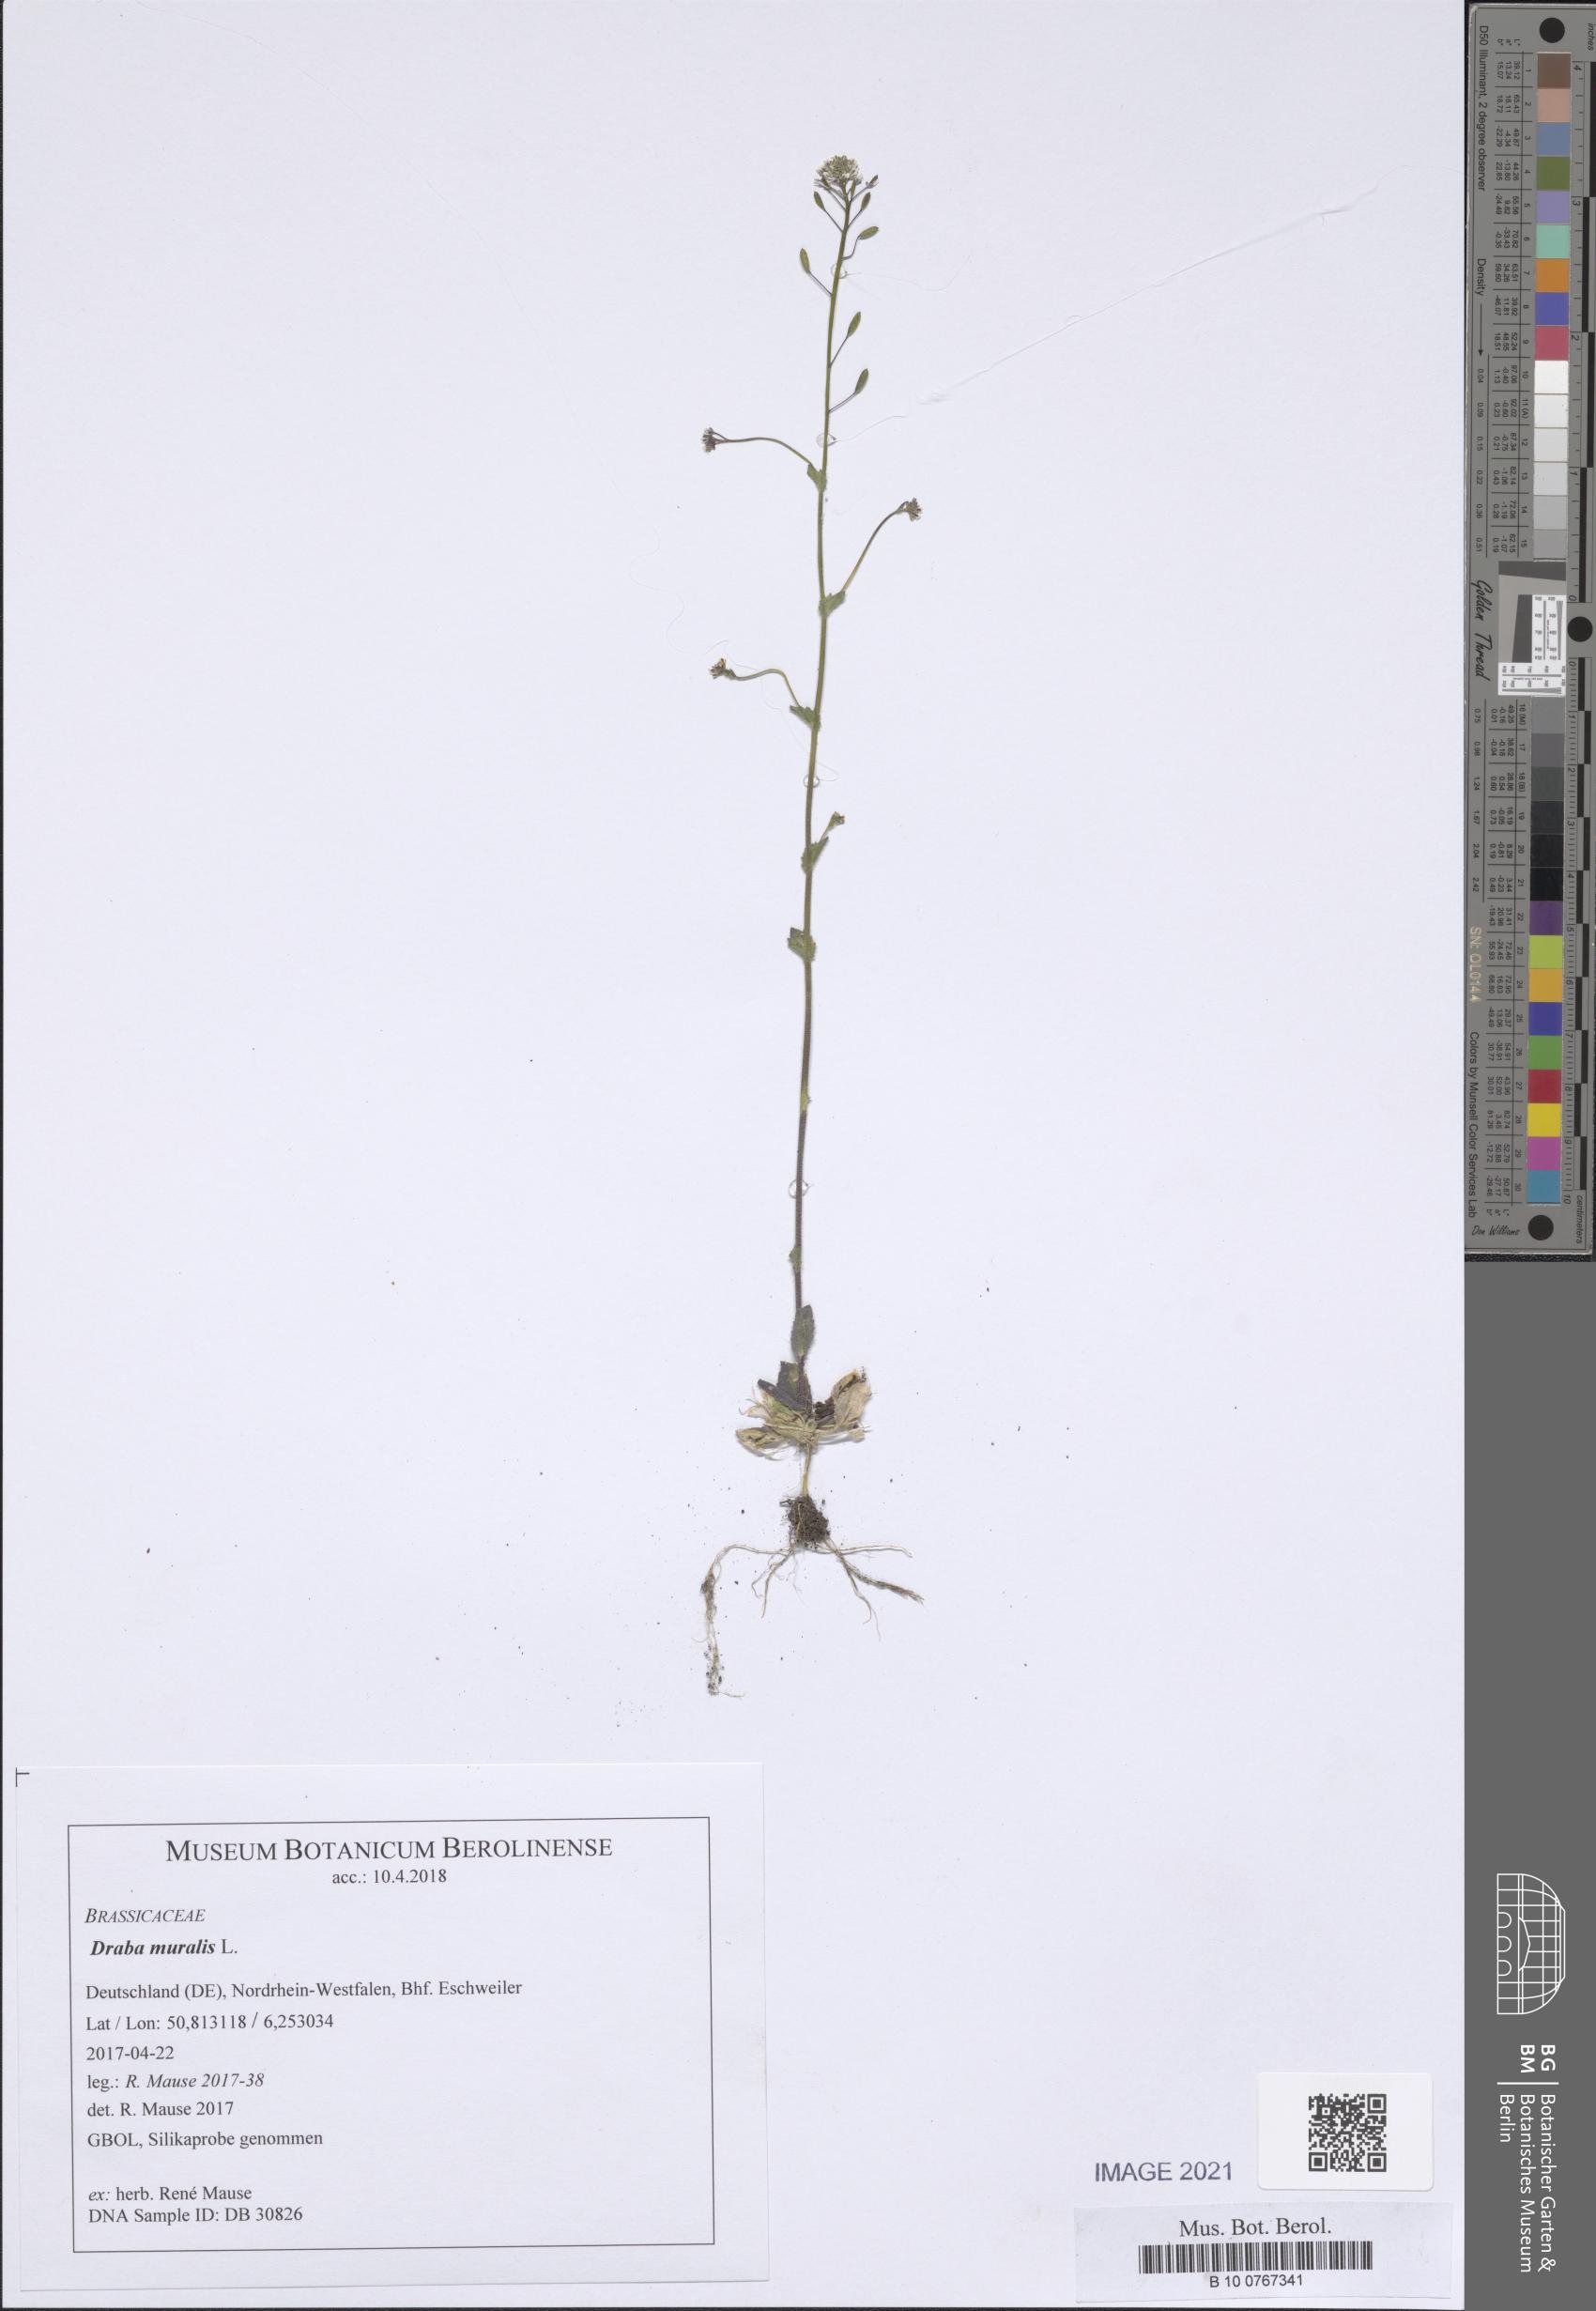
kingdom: Plantae
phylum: Tracheophyta
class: Magnoliopsida
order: Brassicales
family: Brassicaceae
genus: Drabella
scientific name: Drabella muralis
